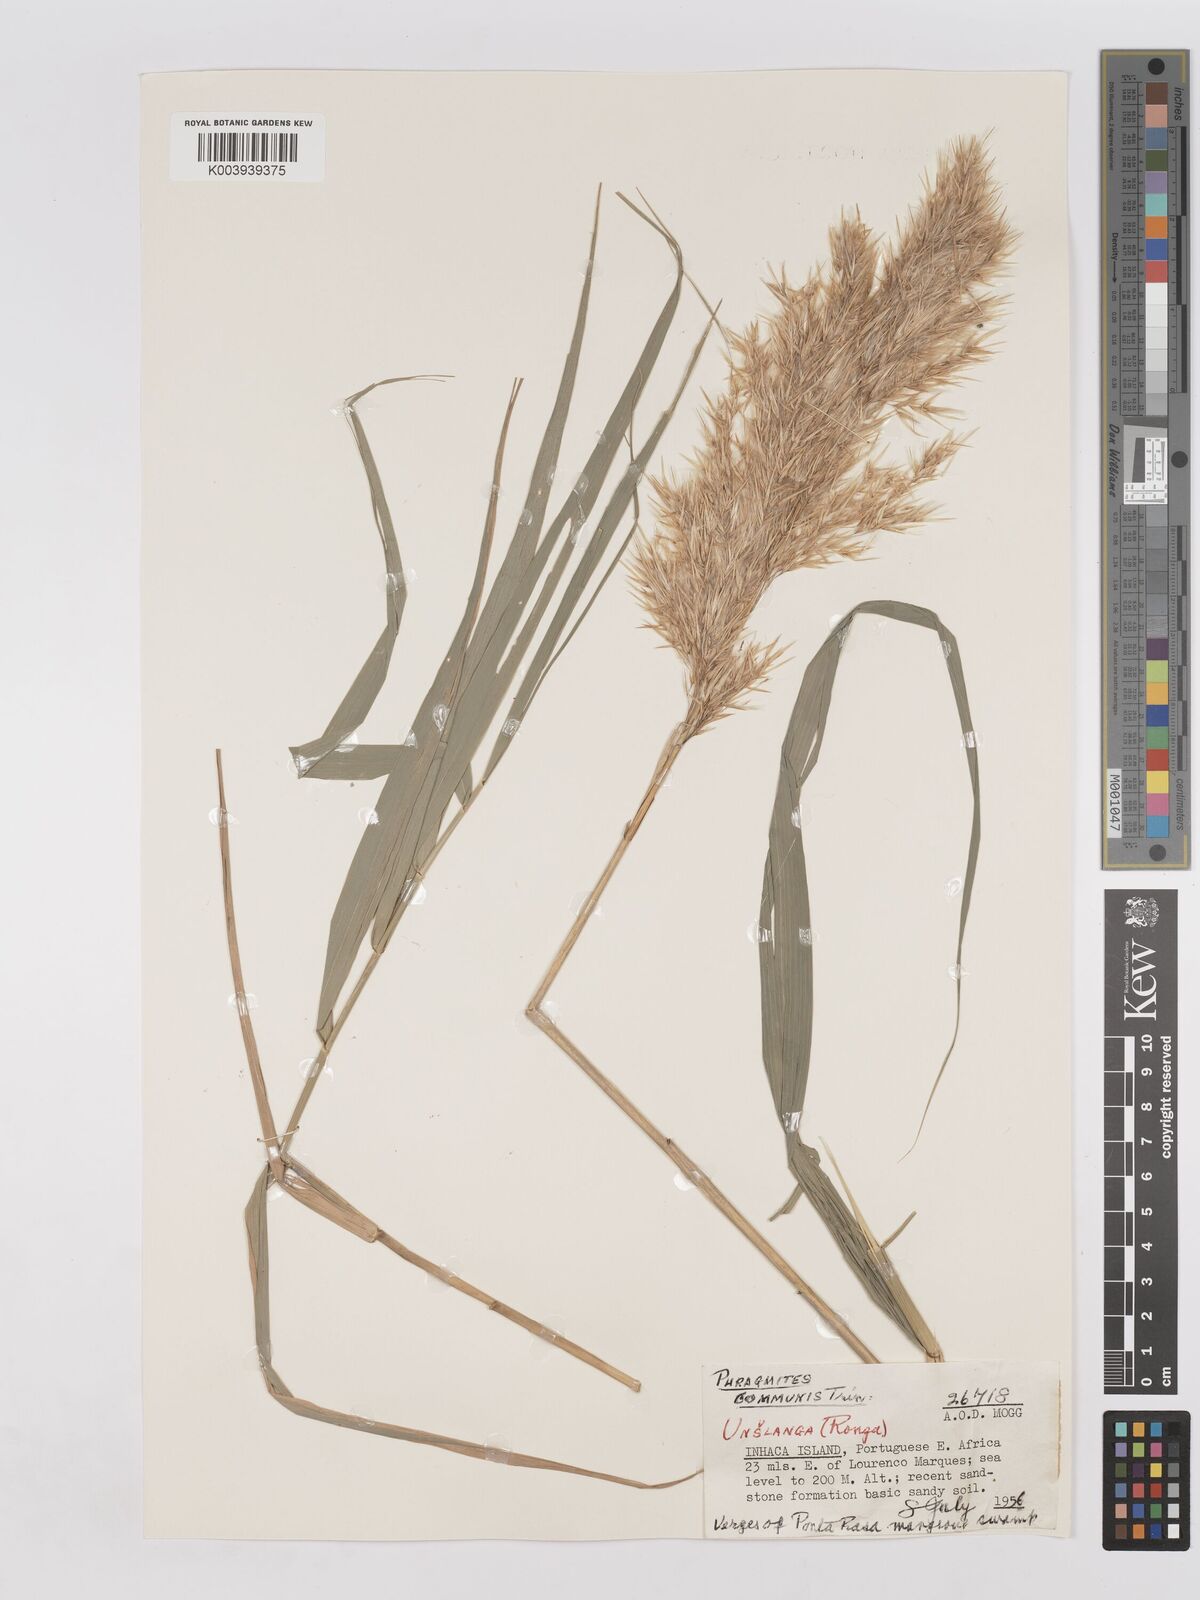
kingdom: Plantae
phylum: Tracheophyta
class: Liliopsida
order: Poales
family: Poaceae
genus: Phragmites
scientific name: Phragmites australis
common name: Common reed
